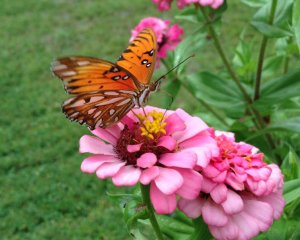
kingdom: Animalia
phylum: Arthropoda
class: Insecta
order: Lepidoptera
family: Nymphalidae
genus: Dione
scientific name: Dione vanillae
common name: Gulf Fritillary
